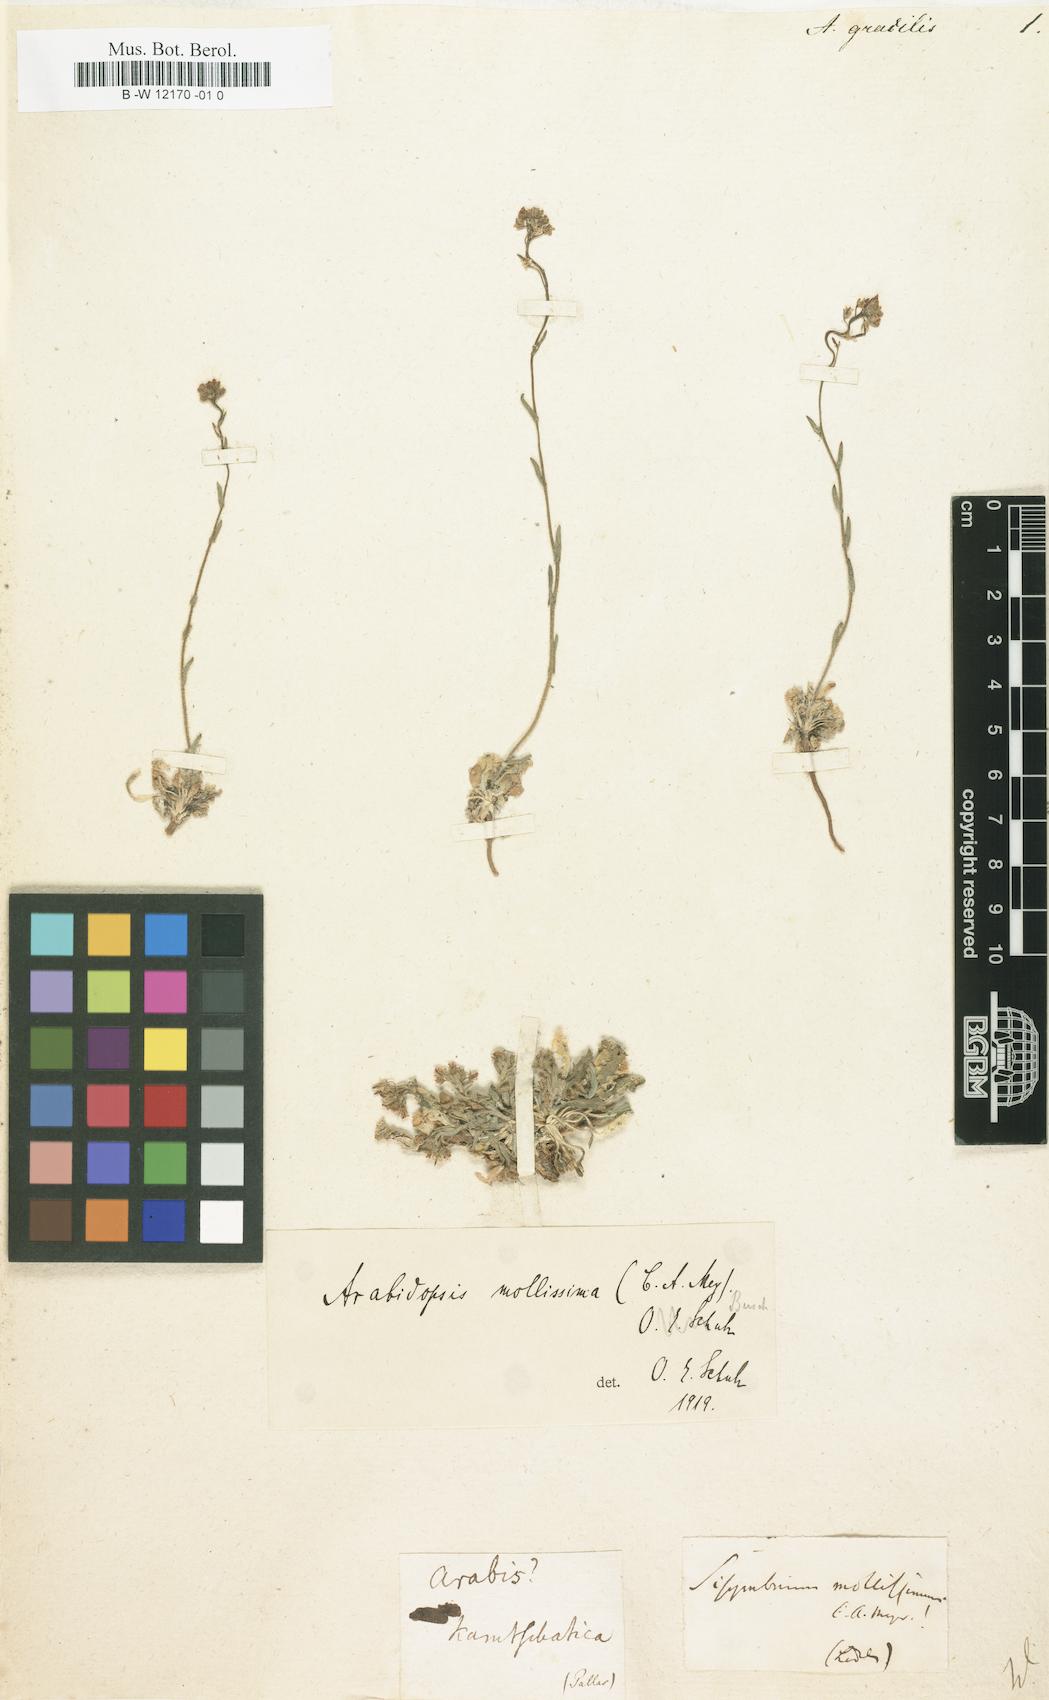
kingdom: Plantae
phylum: Tracheophyta
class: Magnoliopsida
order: Brassicales
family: Brassicaceae
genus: Crucihimalaya
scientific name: Crucihimalaya
